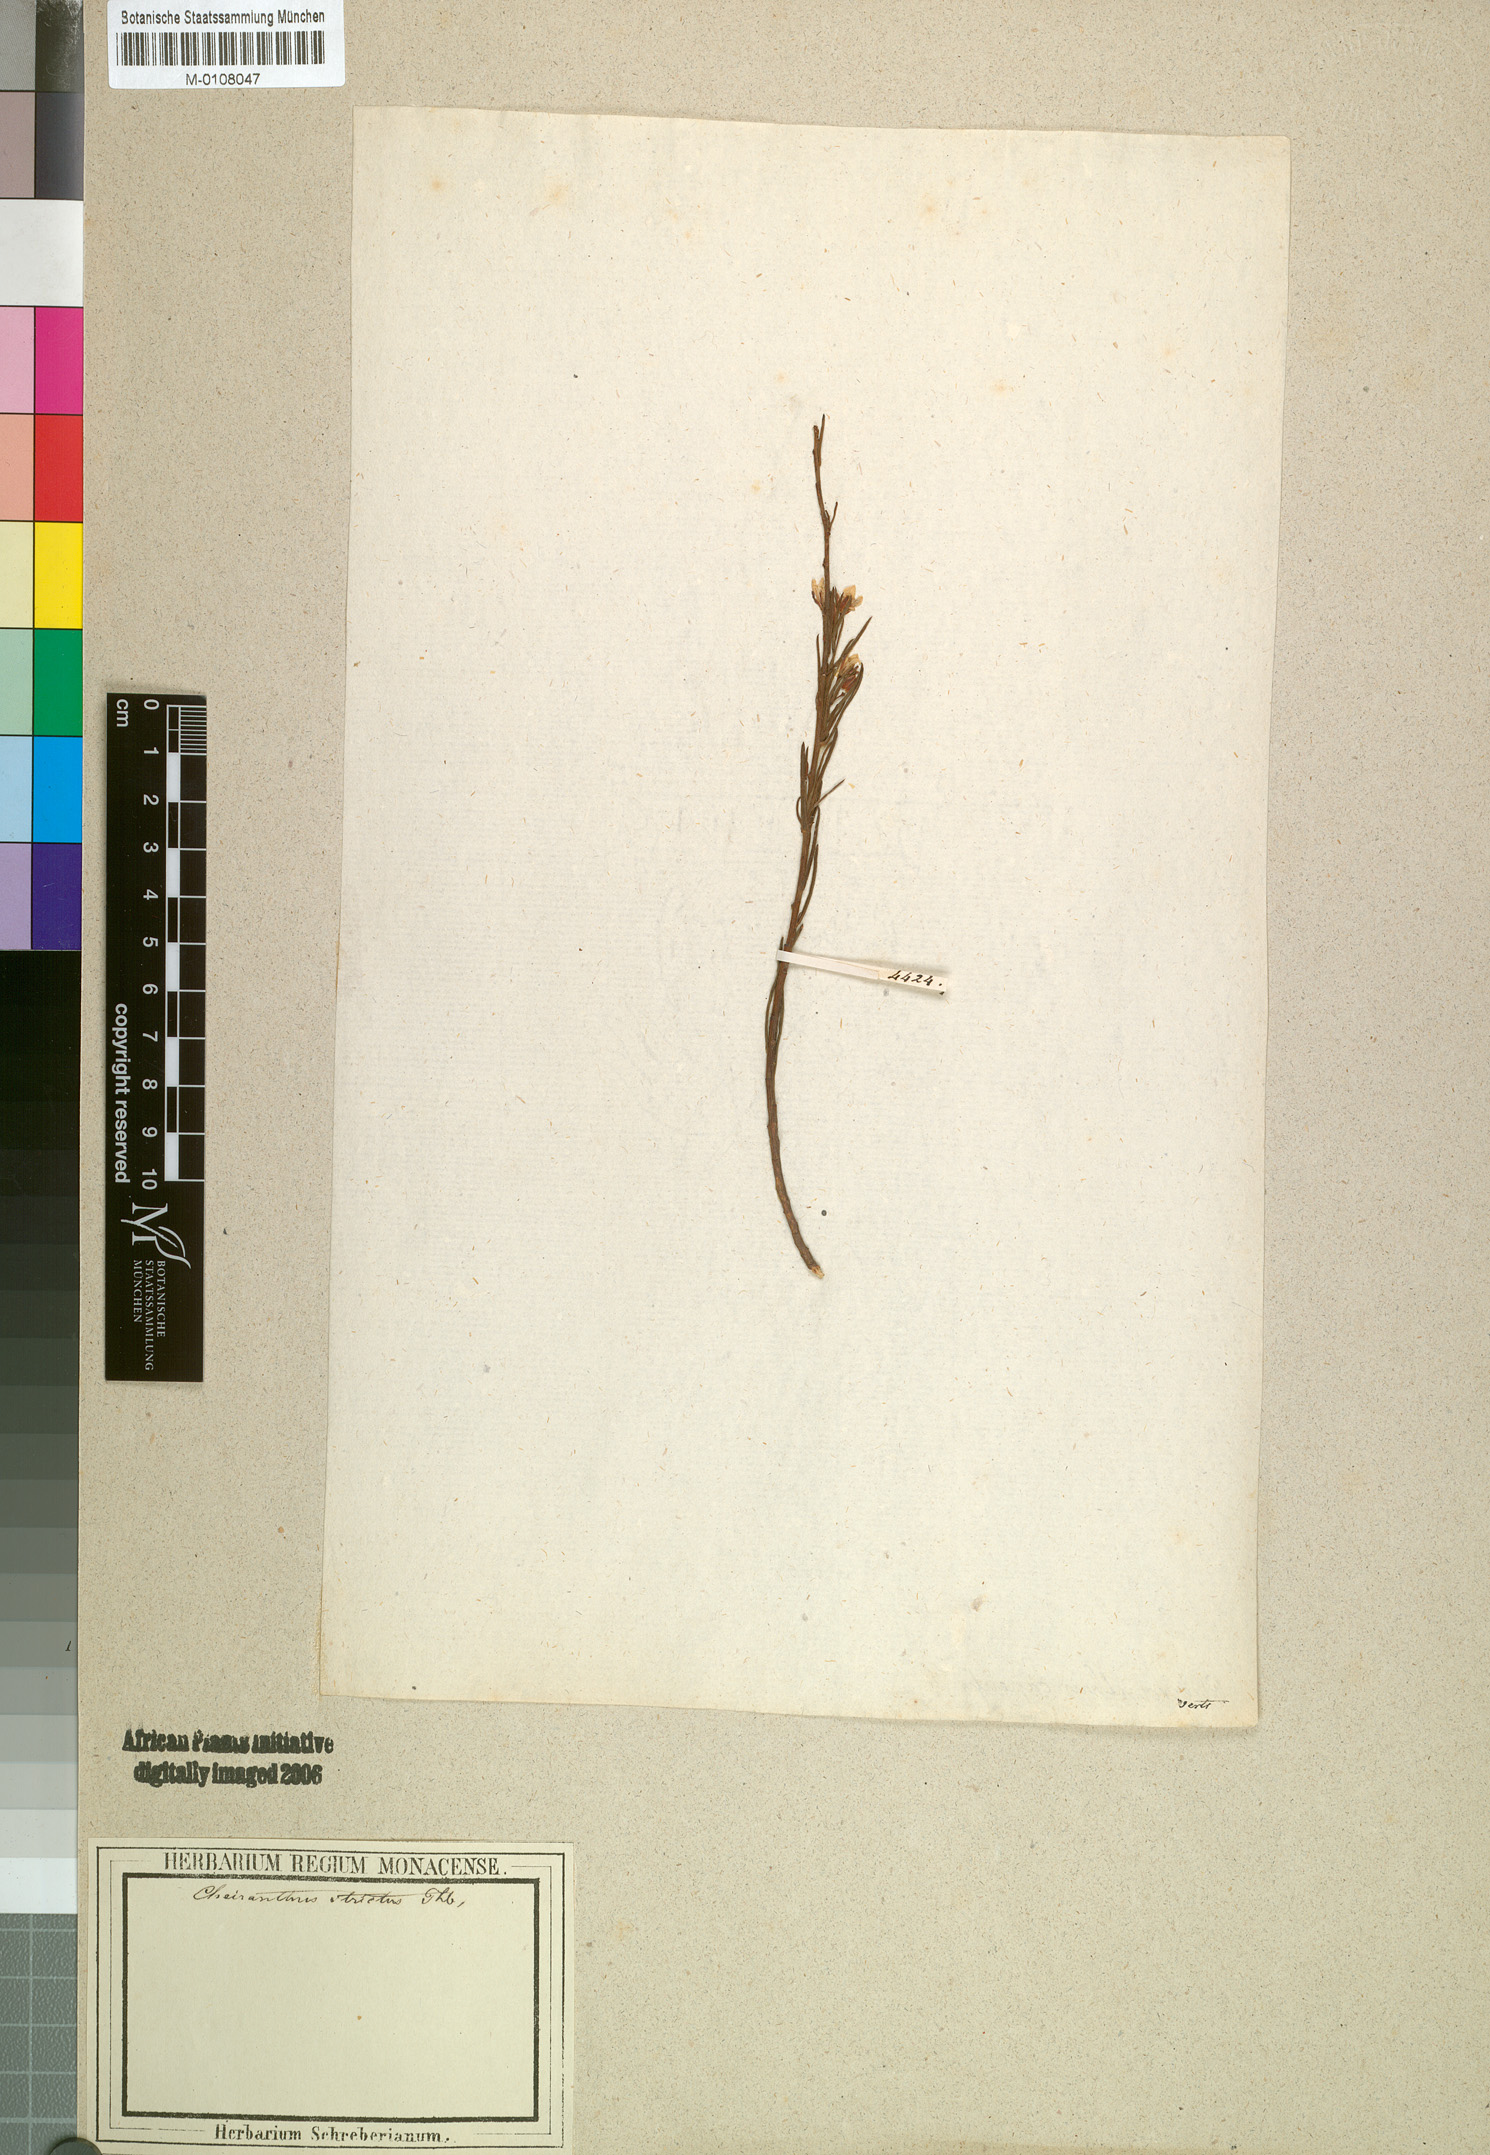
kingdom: Plantae
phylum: Tracheophyta
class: Magnoliopsida
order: Brassicales
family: Brassicaceae
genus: Heliophila
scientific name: Heliophila scoparia
